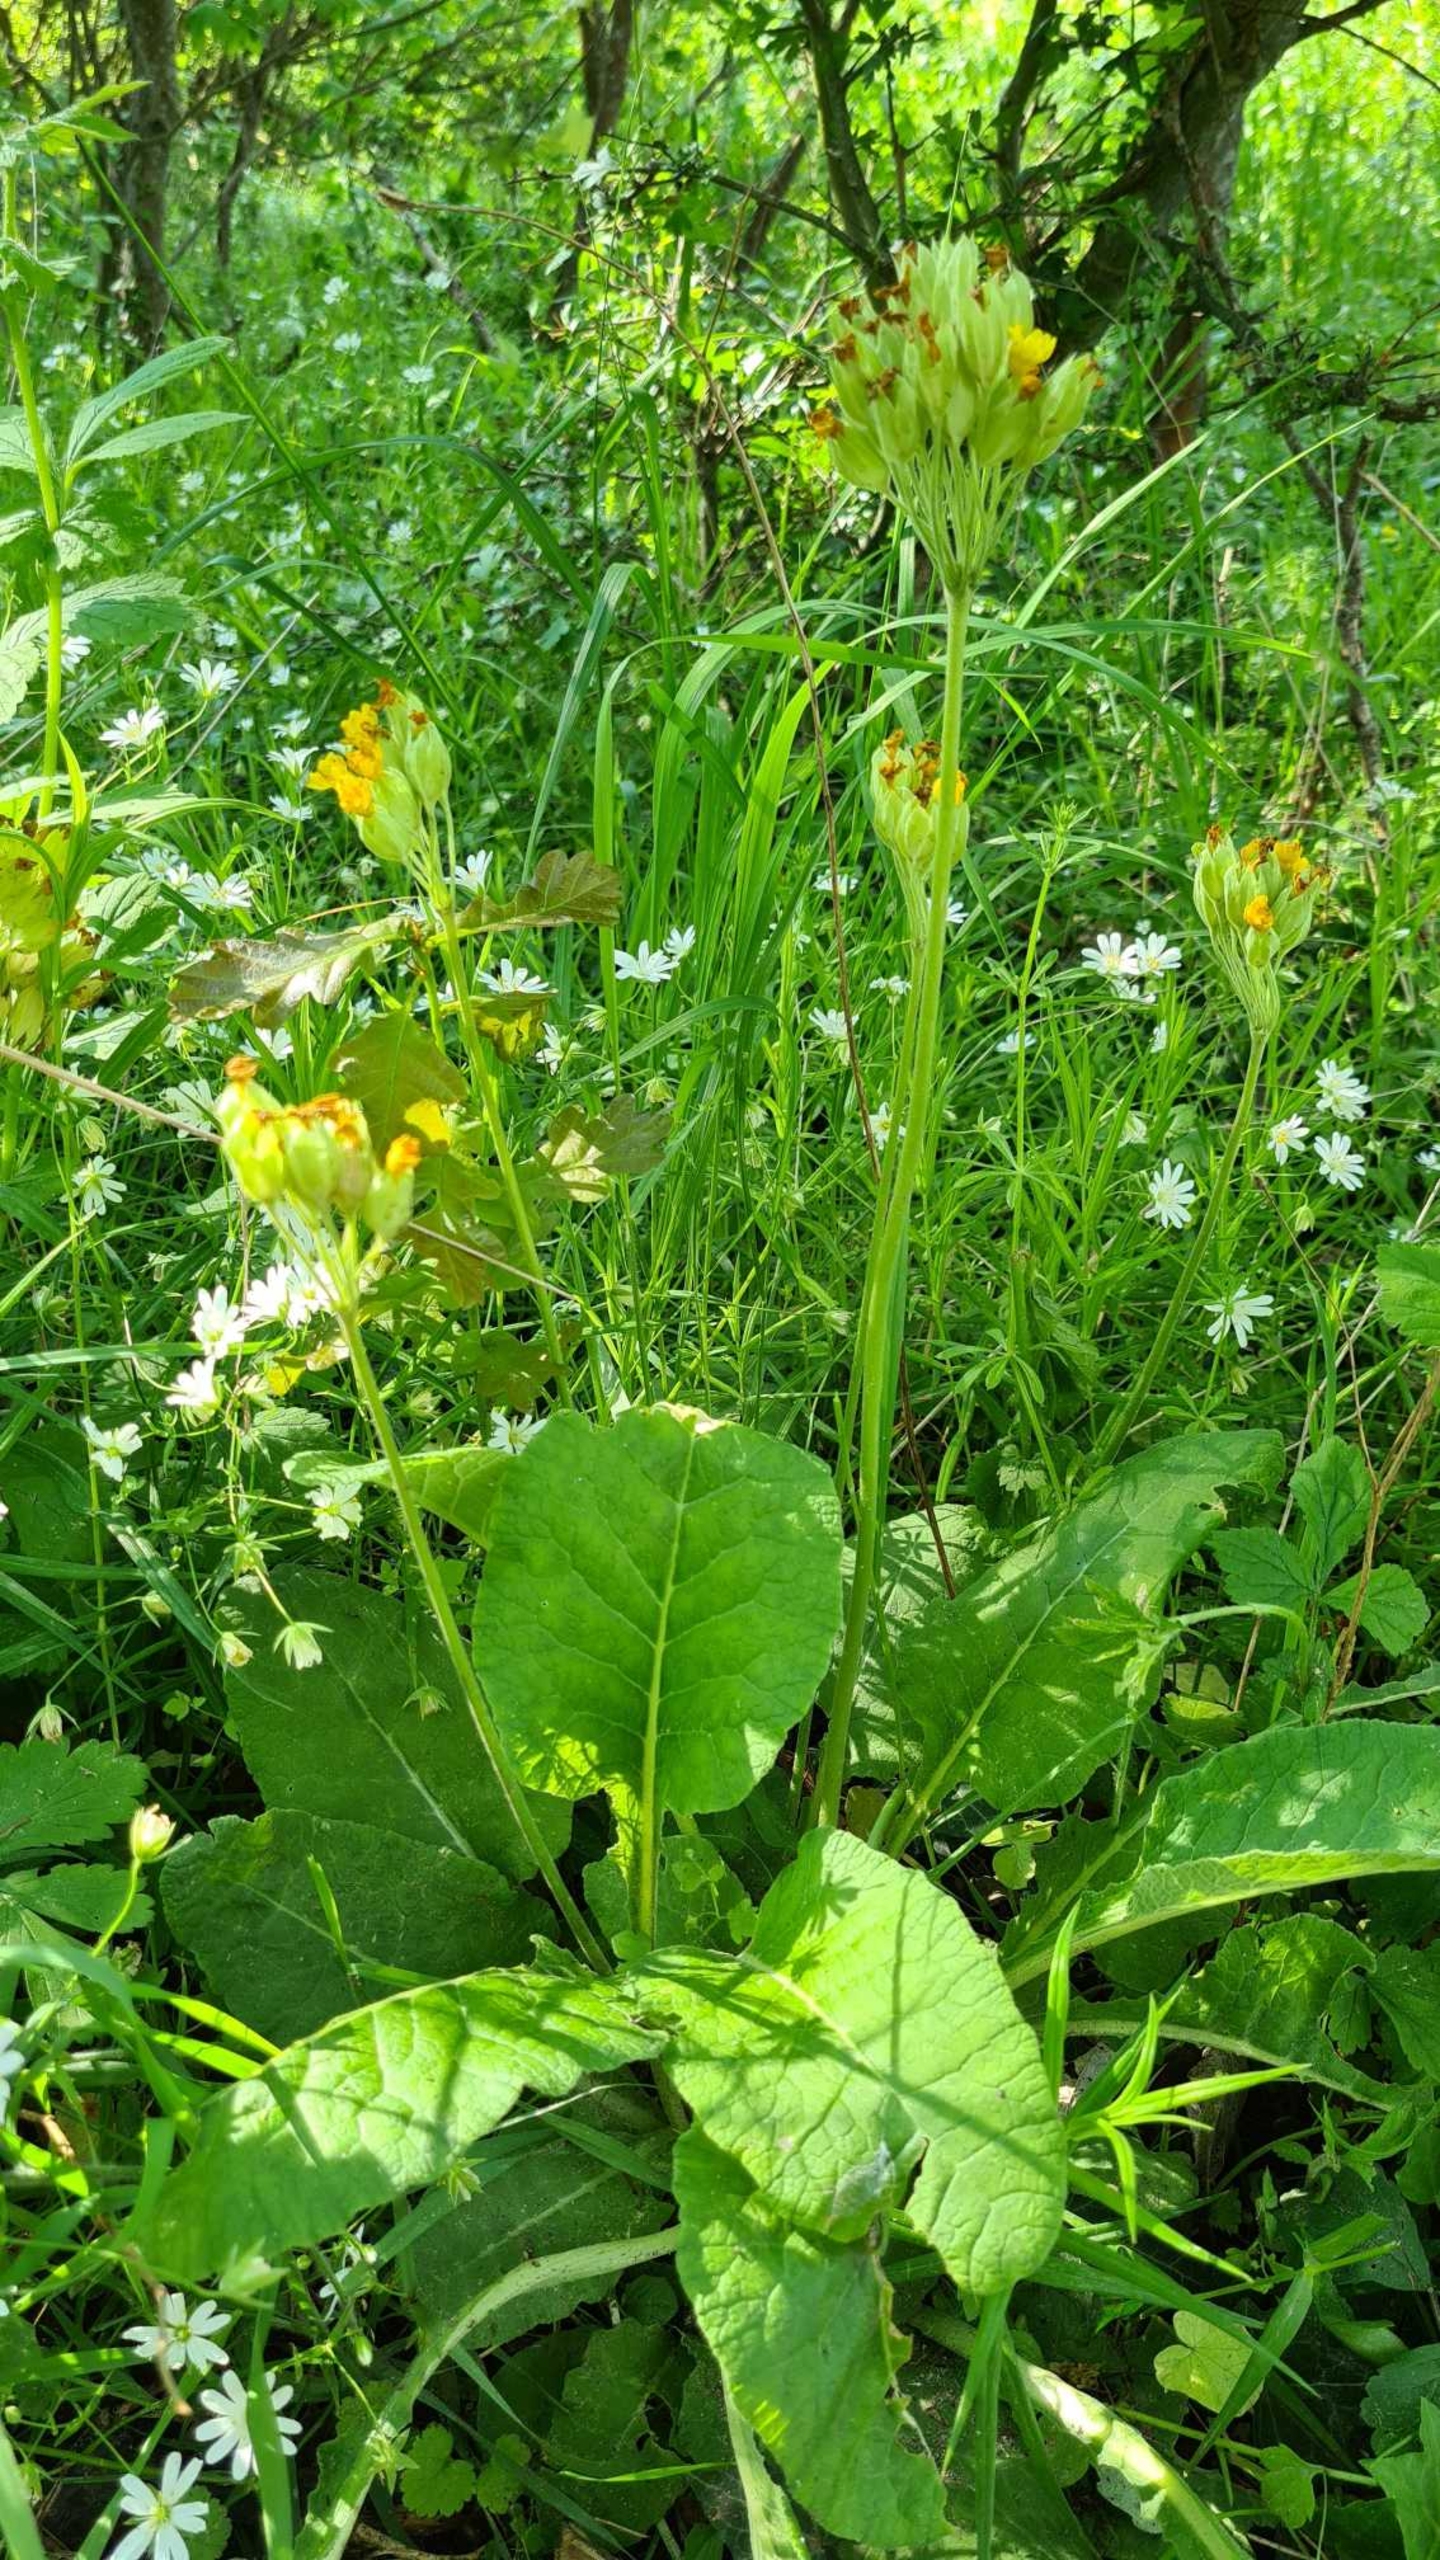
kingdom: Plantae
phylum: Tracheophyta
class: Magnoliopsida
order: Ericales
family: Primulaceae
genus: Primula
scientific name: Primula veris
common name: Hulkravet kodriver
